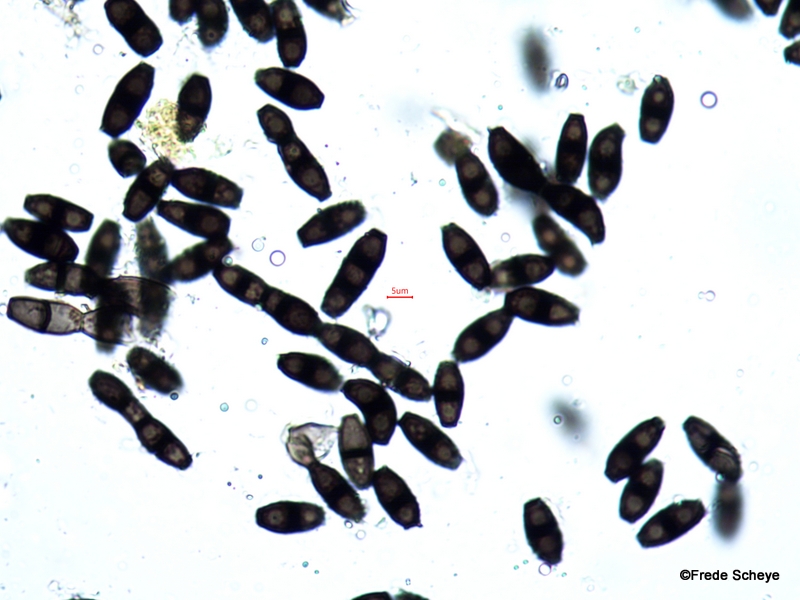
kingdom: Fungi
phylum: Ascomycota
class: Leotiomycetes
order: Helotiales
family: Helotiaceae
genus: Bispora
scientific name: Bispora pallescens
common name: måtte-snitskive
